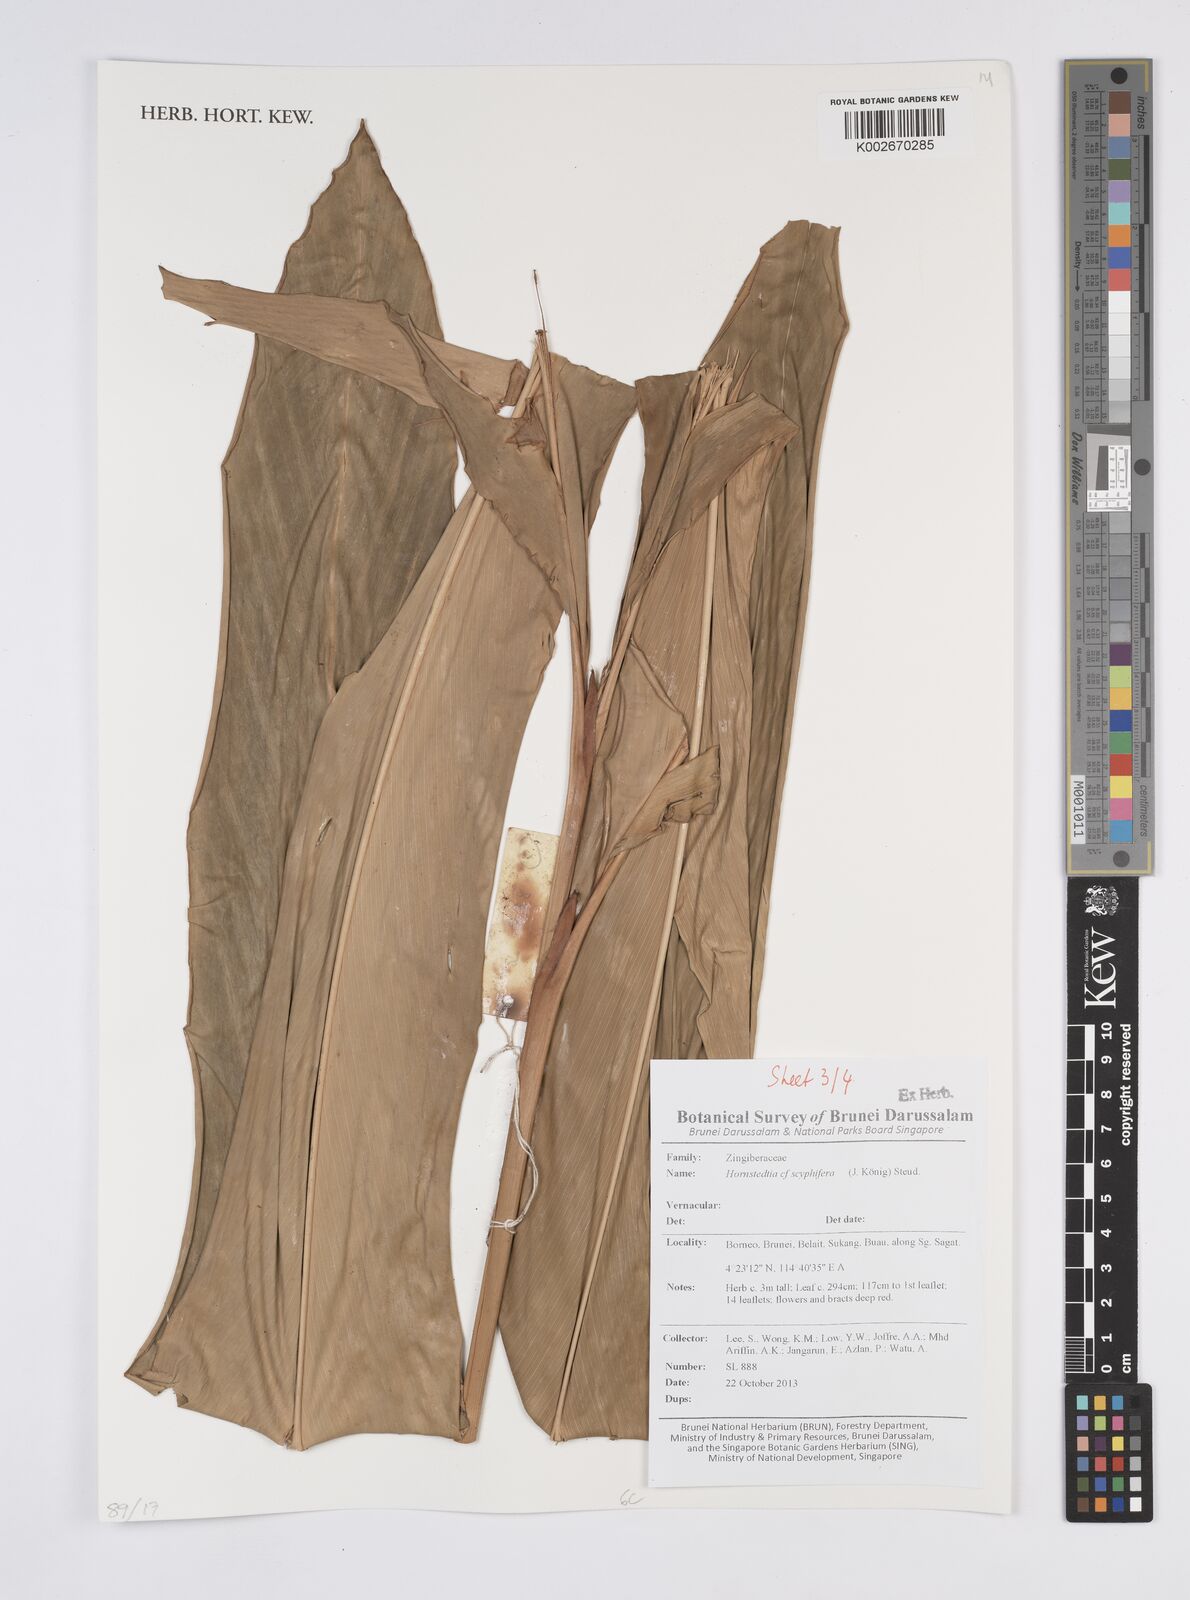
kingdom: Plantae
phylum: Tracheophyta
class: Liliopsida
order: Zingiberales
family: Zingiberaceae
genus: Hornstedtia
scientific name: Hornstedtia scyphifera
